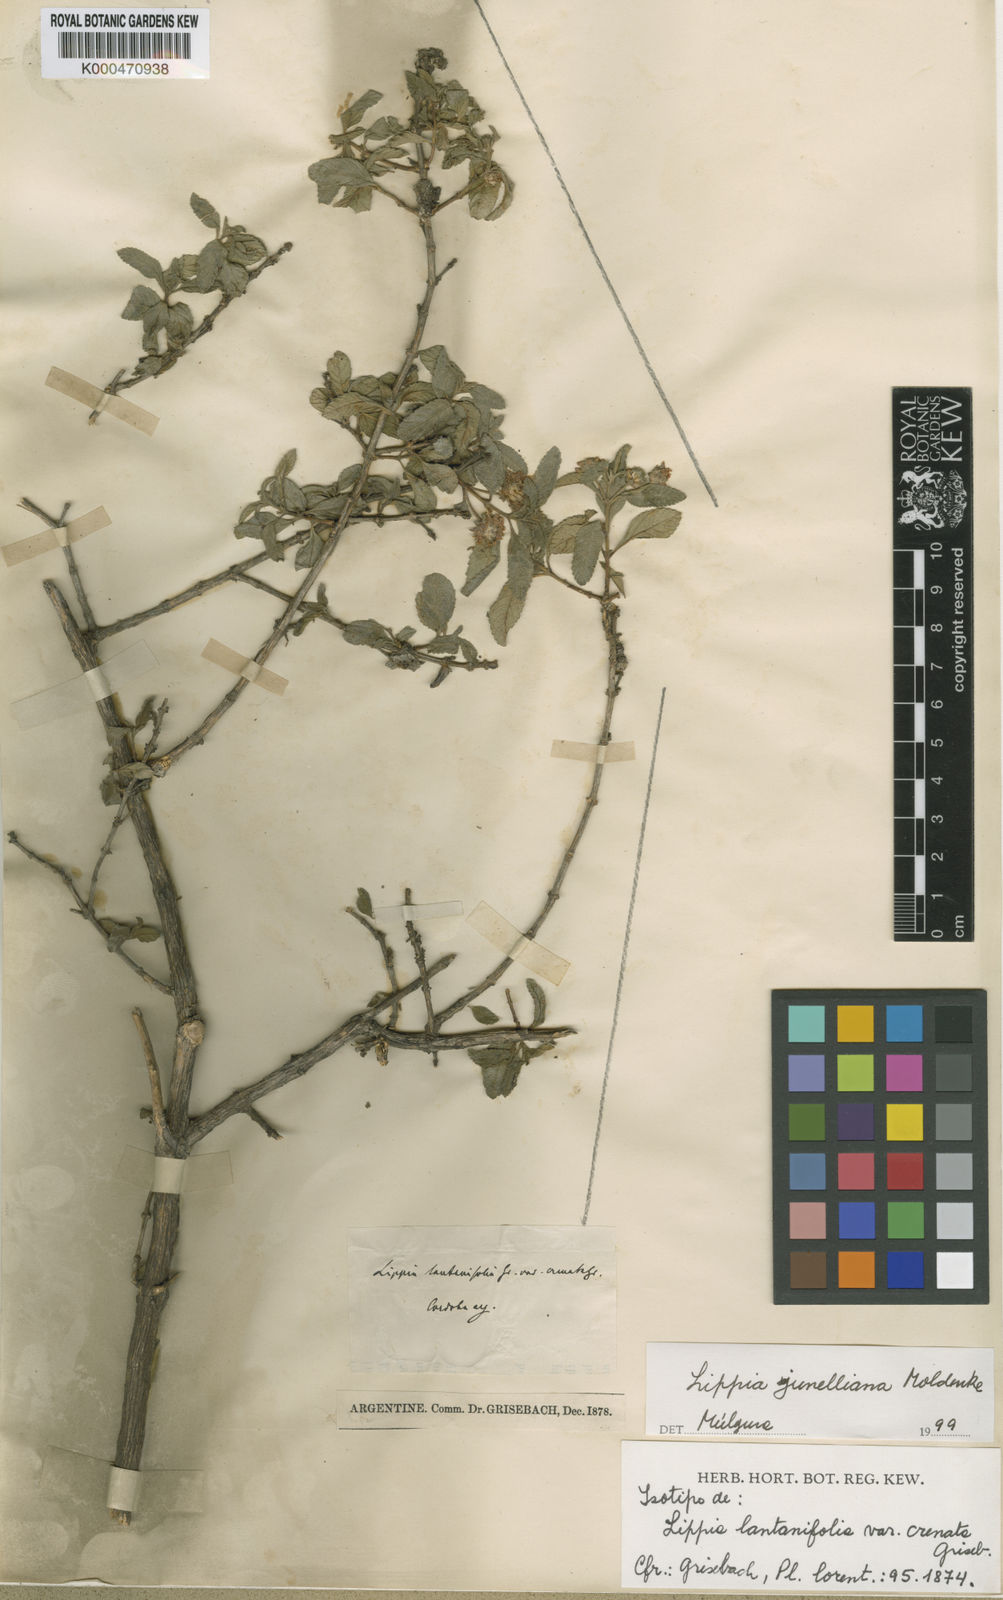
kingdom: Plantae
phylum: Tracheophyta
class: Magnoliopsida
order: Lamiales
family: Verbenaceae
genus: Lippia
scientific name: Lippia junelliana
